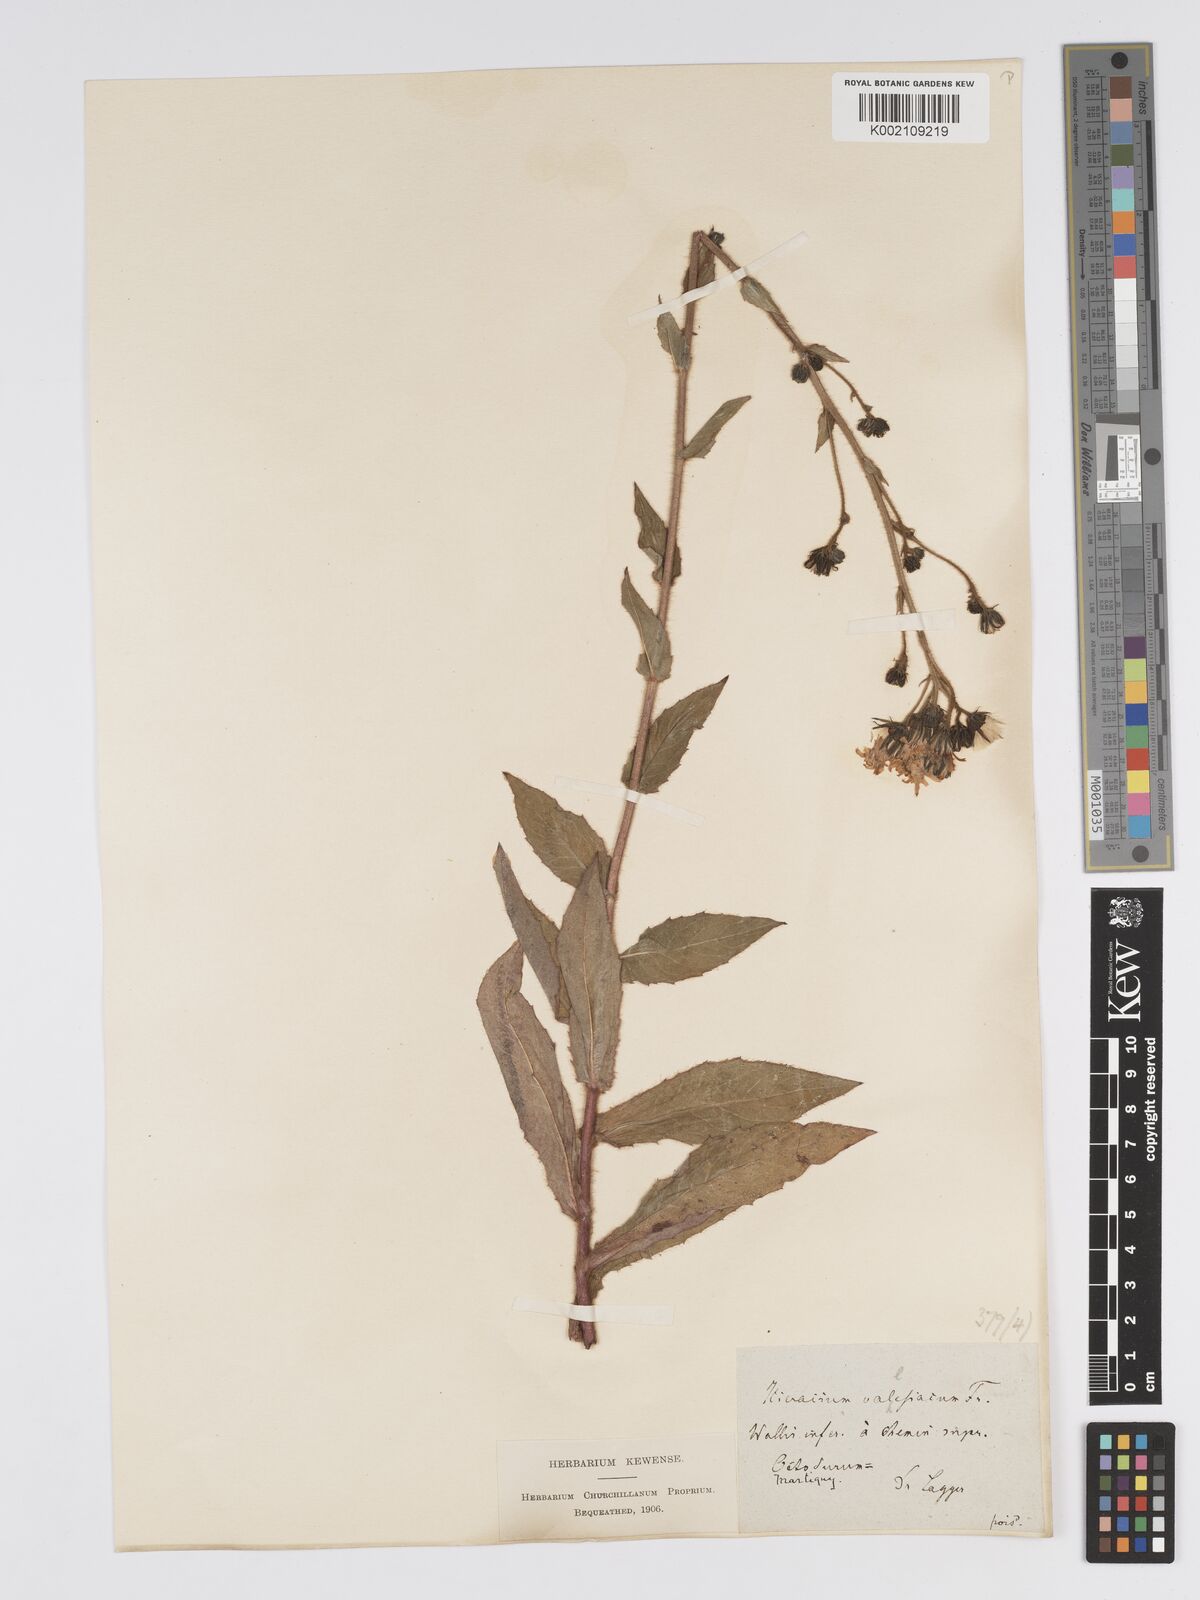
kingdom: Plantae
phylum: Tracheophyta
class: Magnoliopsida
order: Asterales
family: Asteraceae
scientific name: Asteraceae
